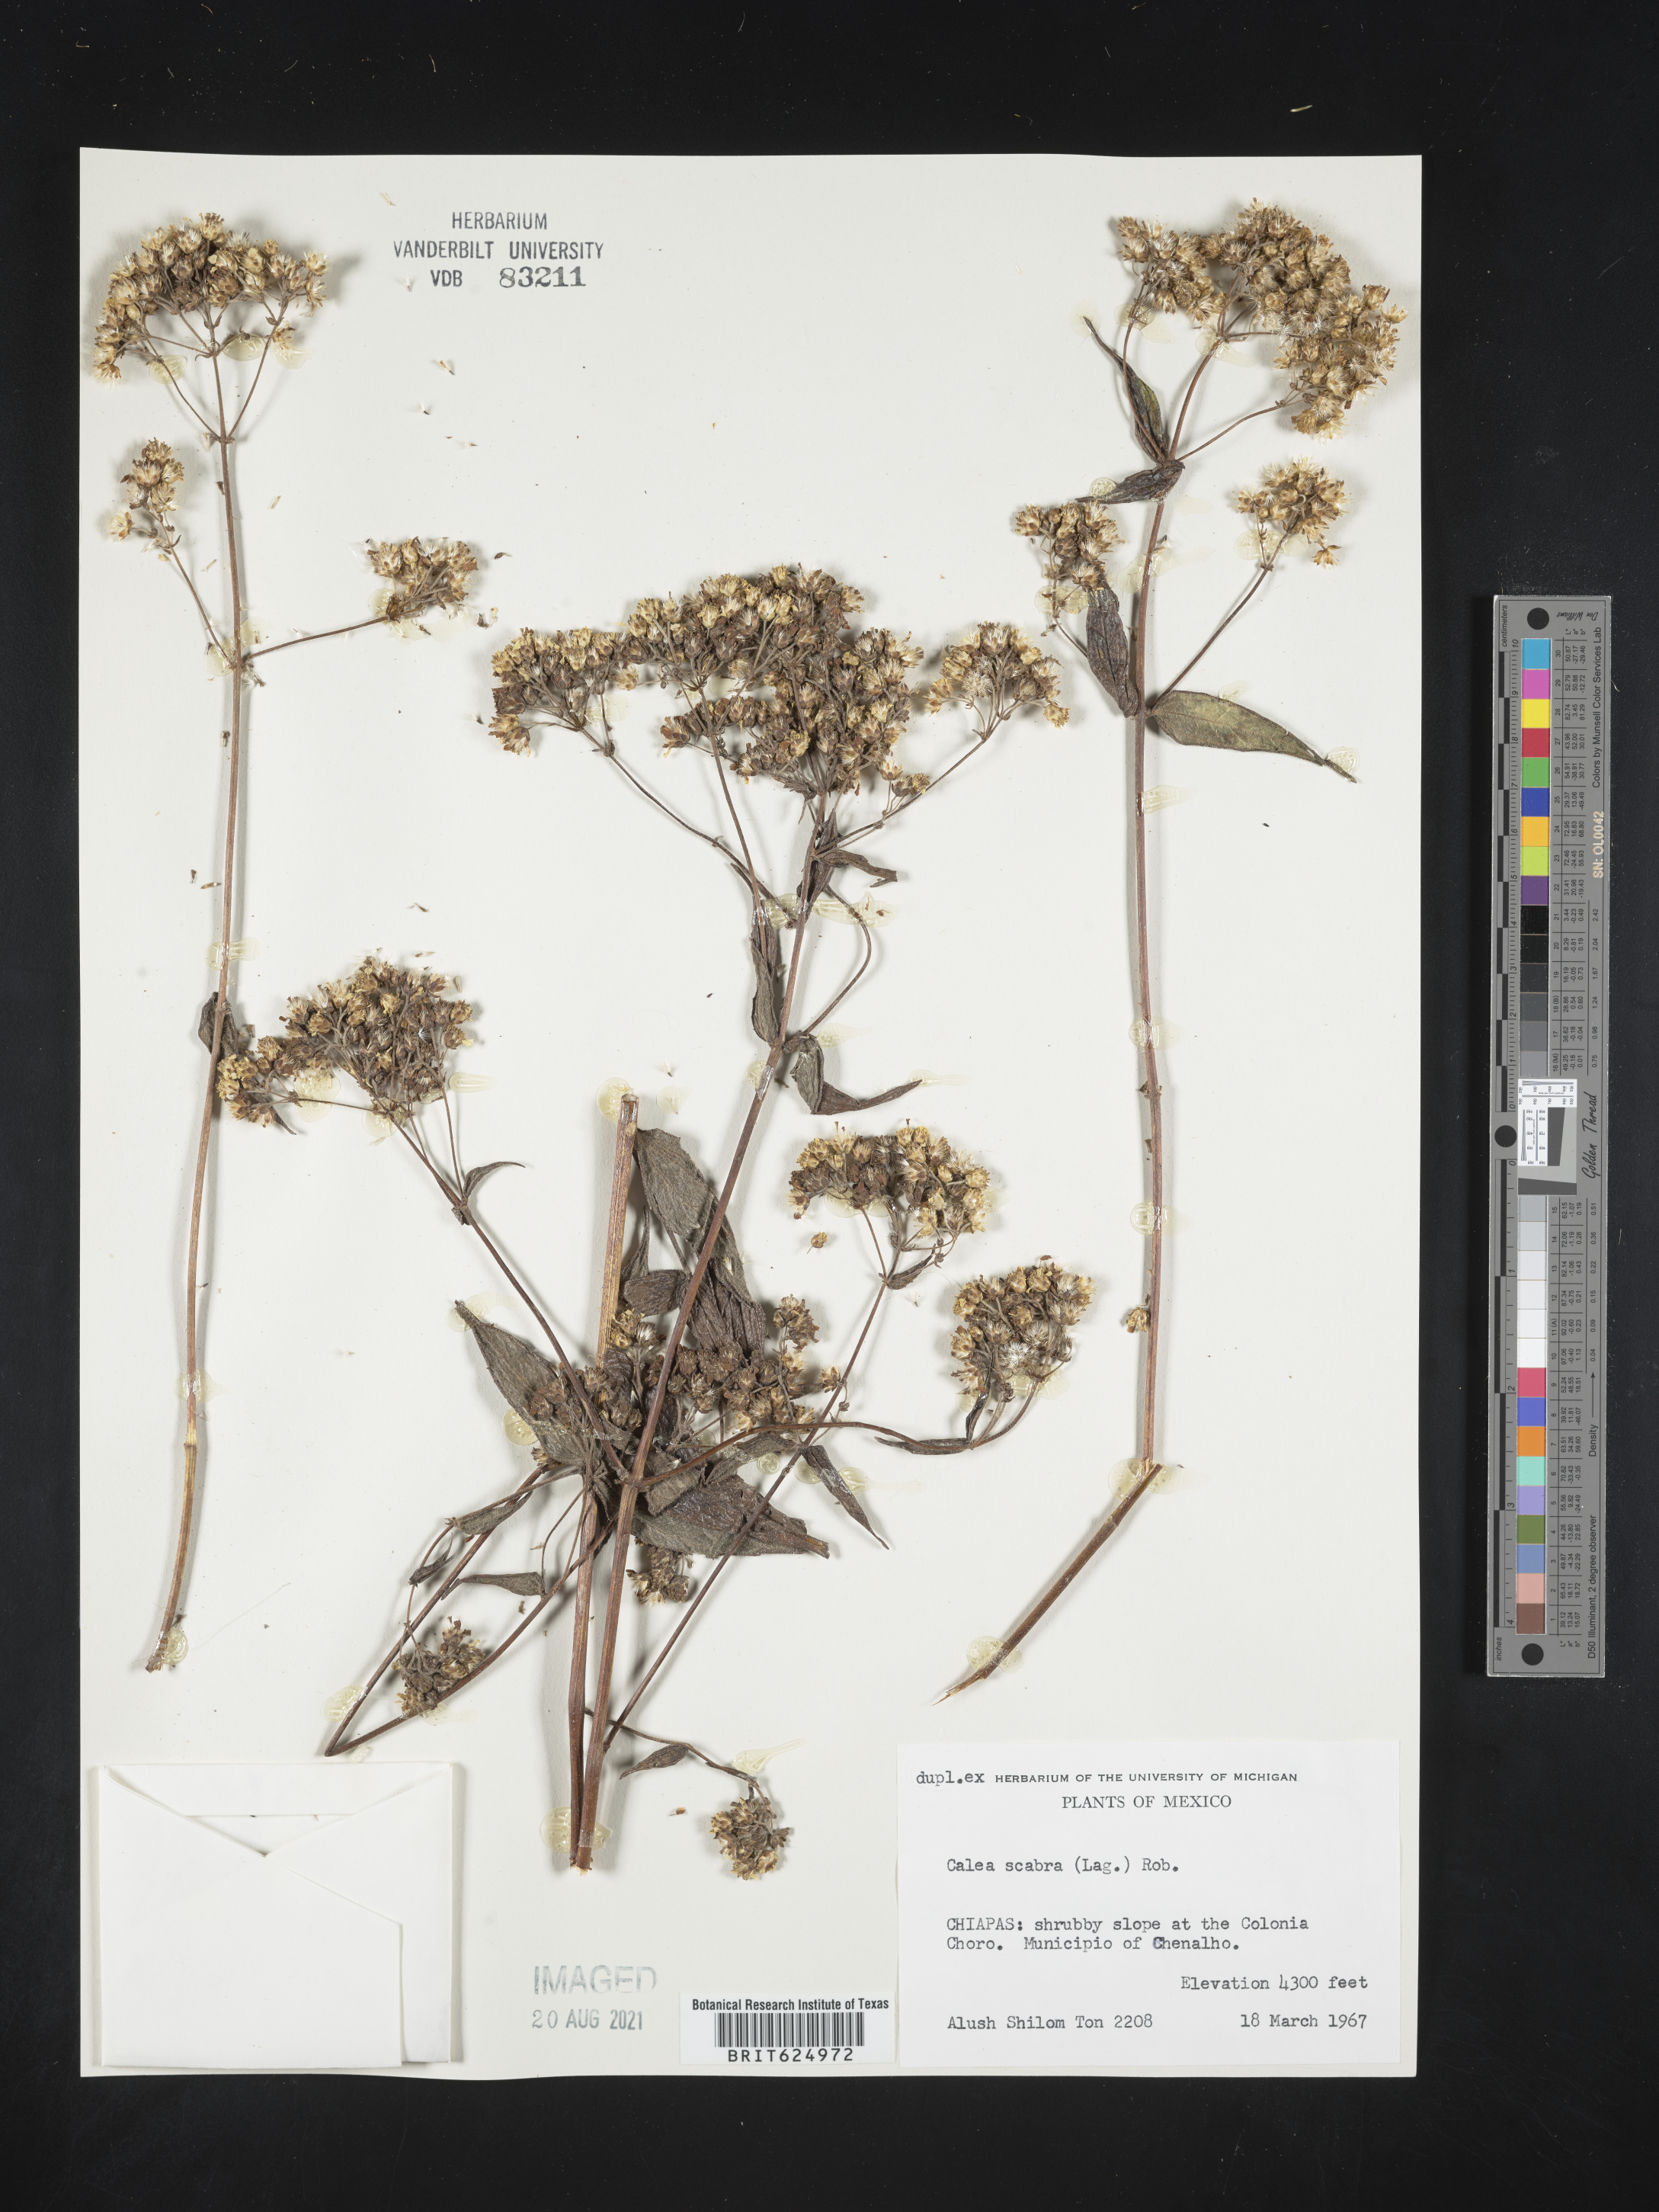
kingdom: Plantae
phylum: Tracheophyta
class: Magnoliopsida
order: Asterales
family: Asteraceae
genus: Alloispermum
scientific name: Alloispermum scabrum
